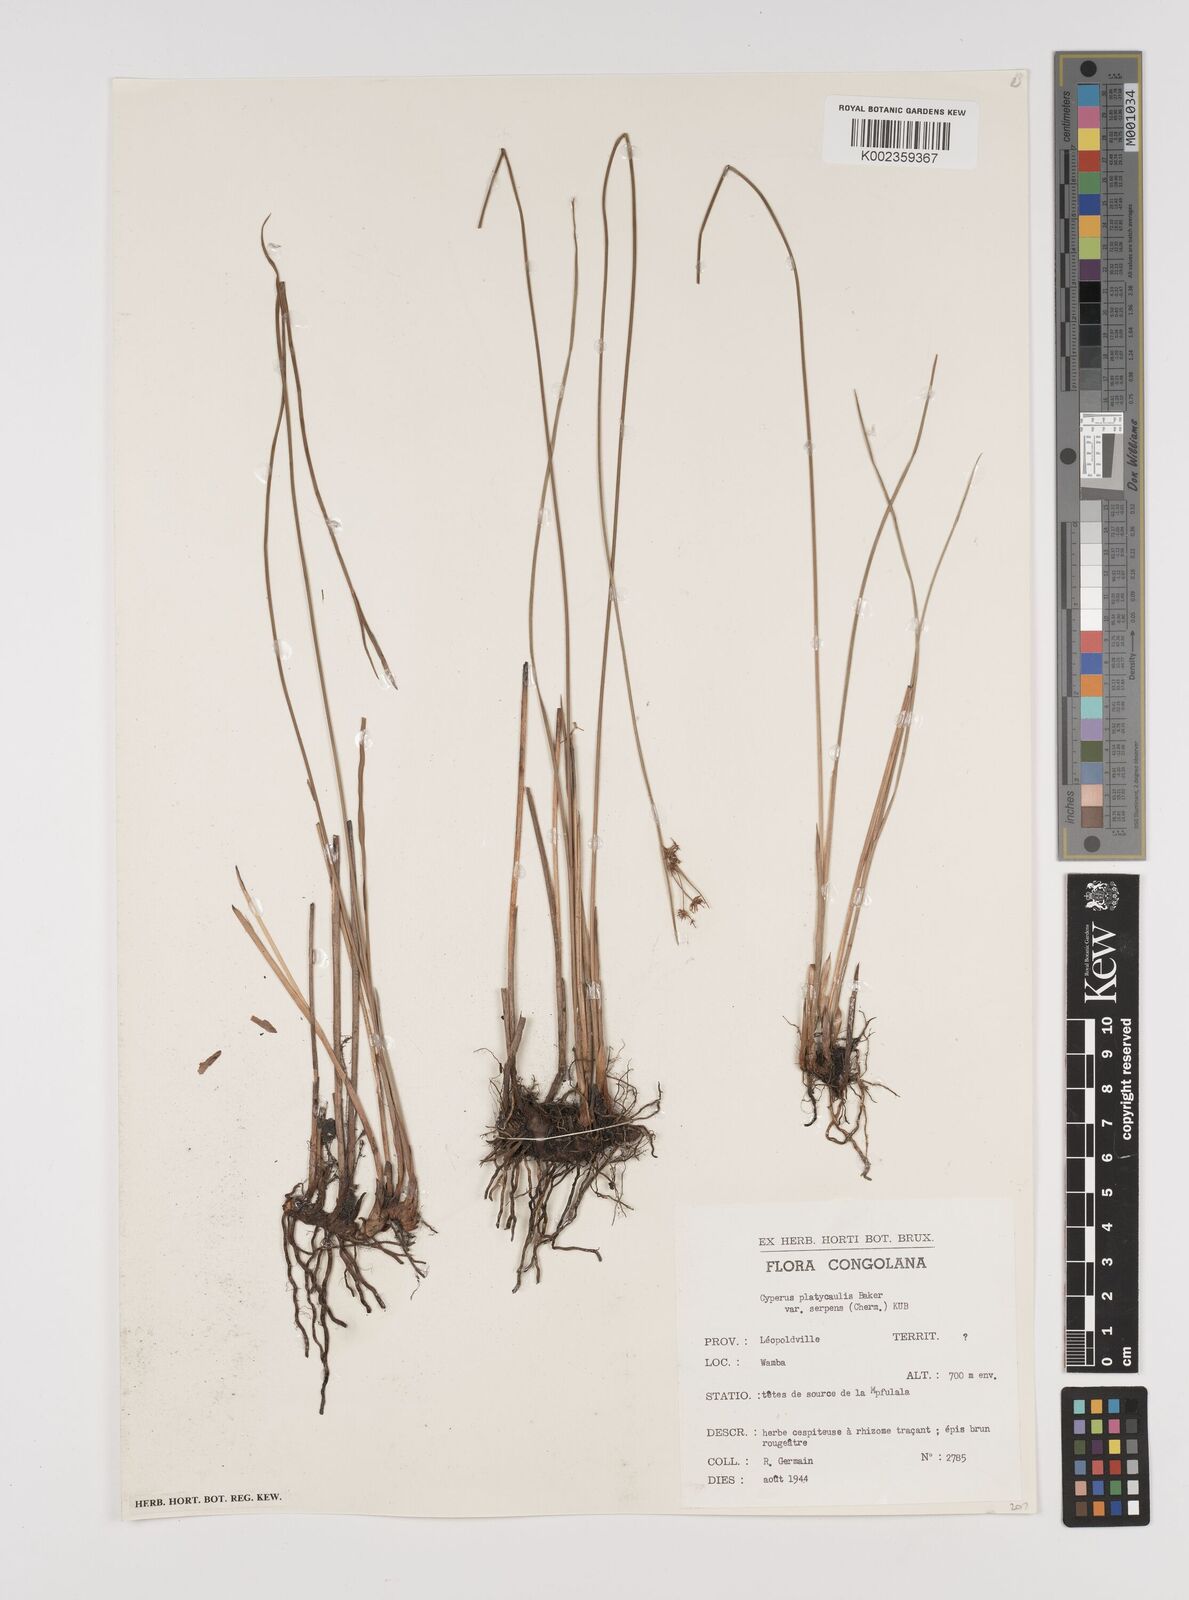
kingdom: Plantae
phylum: Tracheophyta
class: Liliopsida
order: Poales
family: Cyperaceae
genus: Cyperus
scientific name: Cyperus platycaulis
